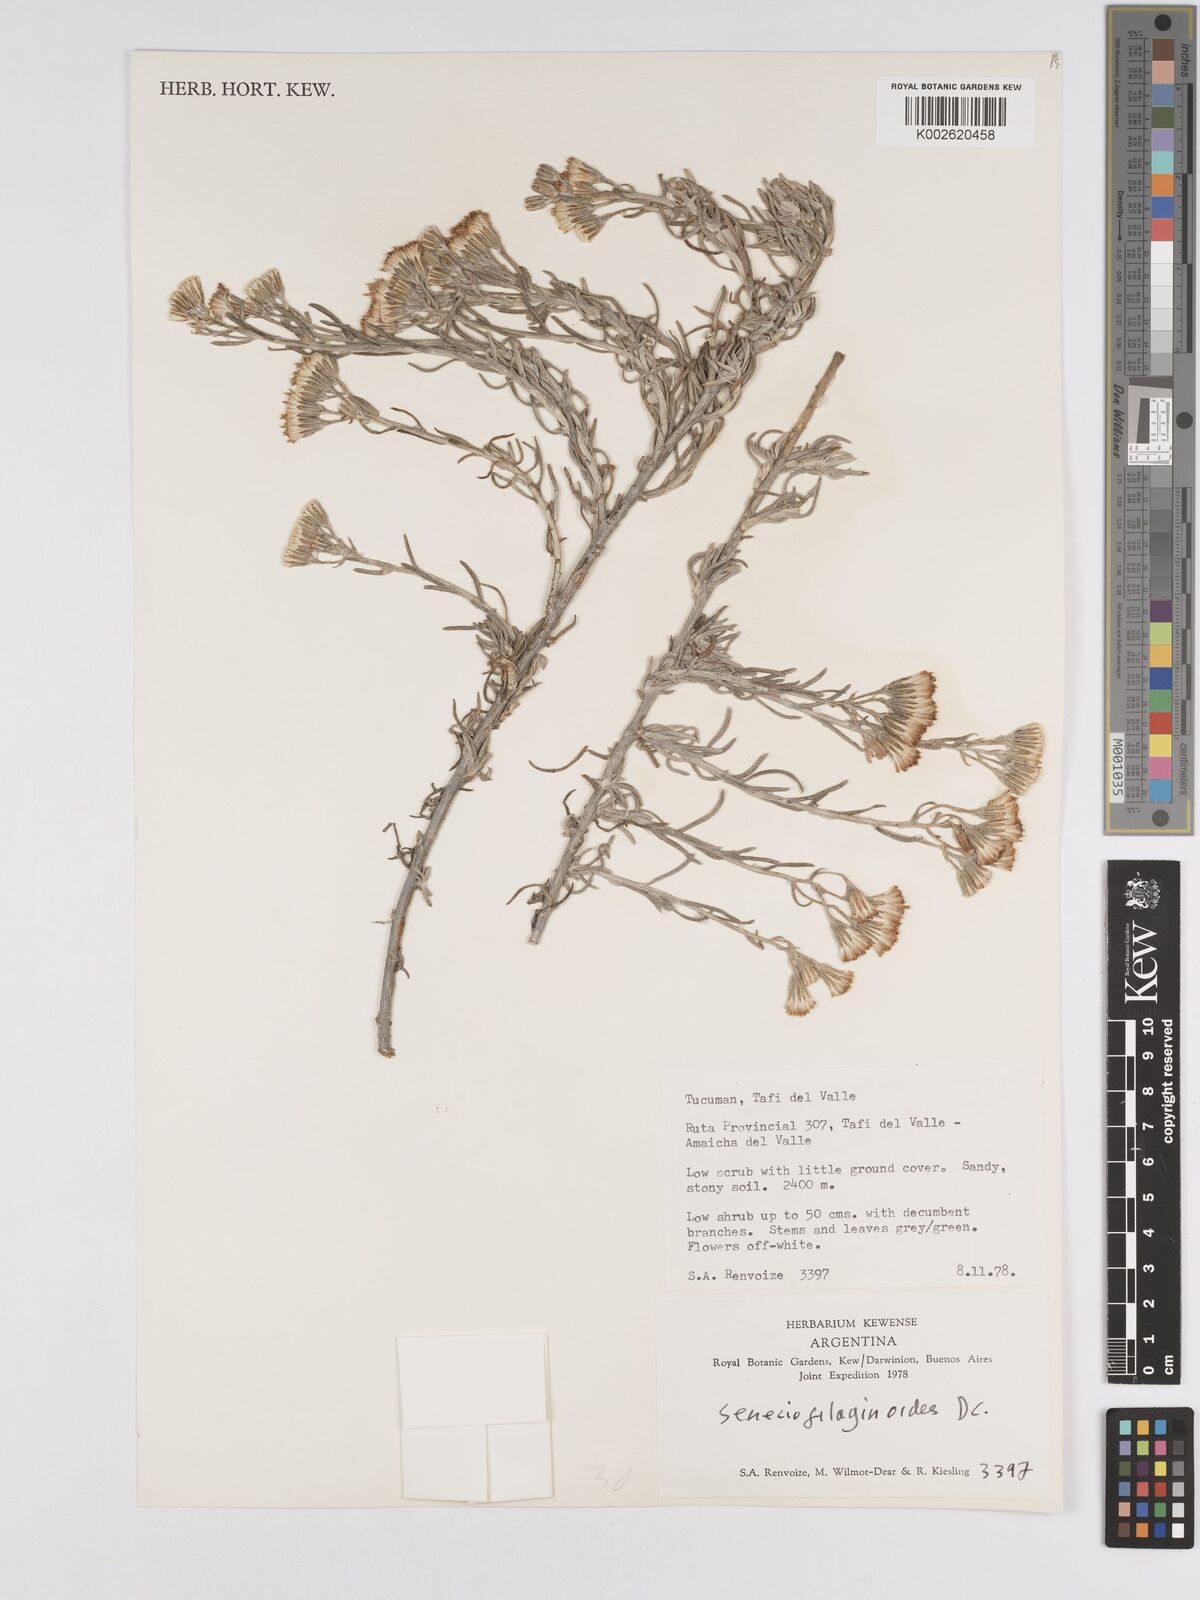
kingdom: Plantae
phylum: Tracheophyta
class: Magnoliopsida
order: Asterales
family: Asteraceae
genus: Senecio
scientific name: Senecio filaginoides
